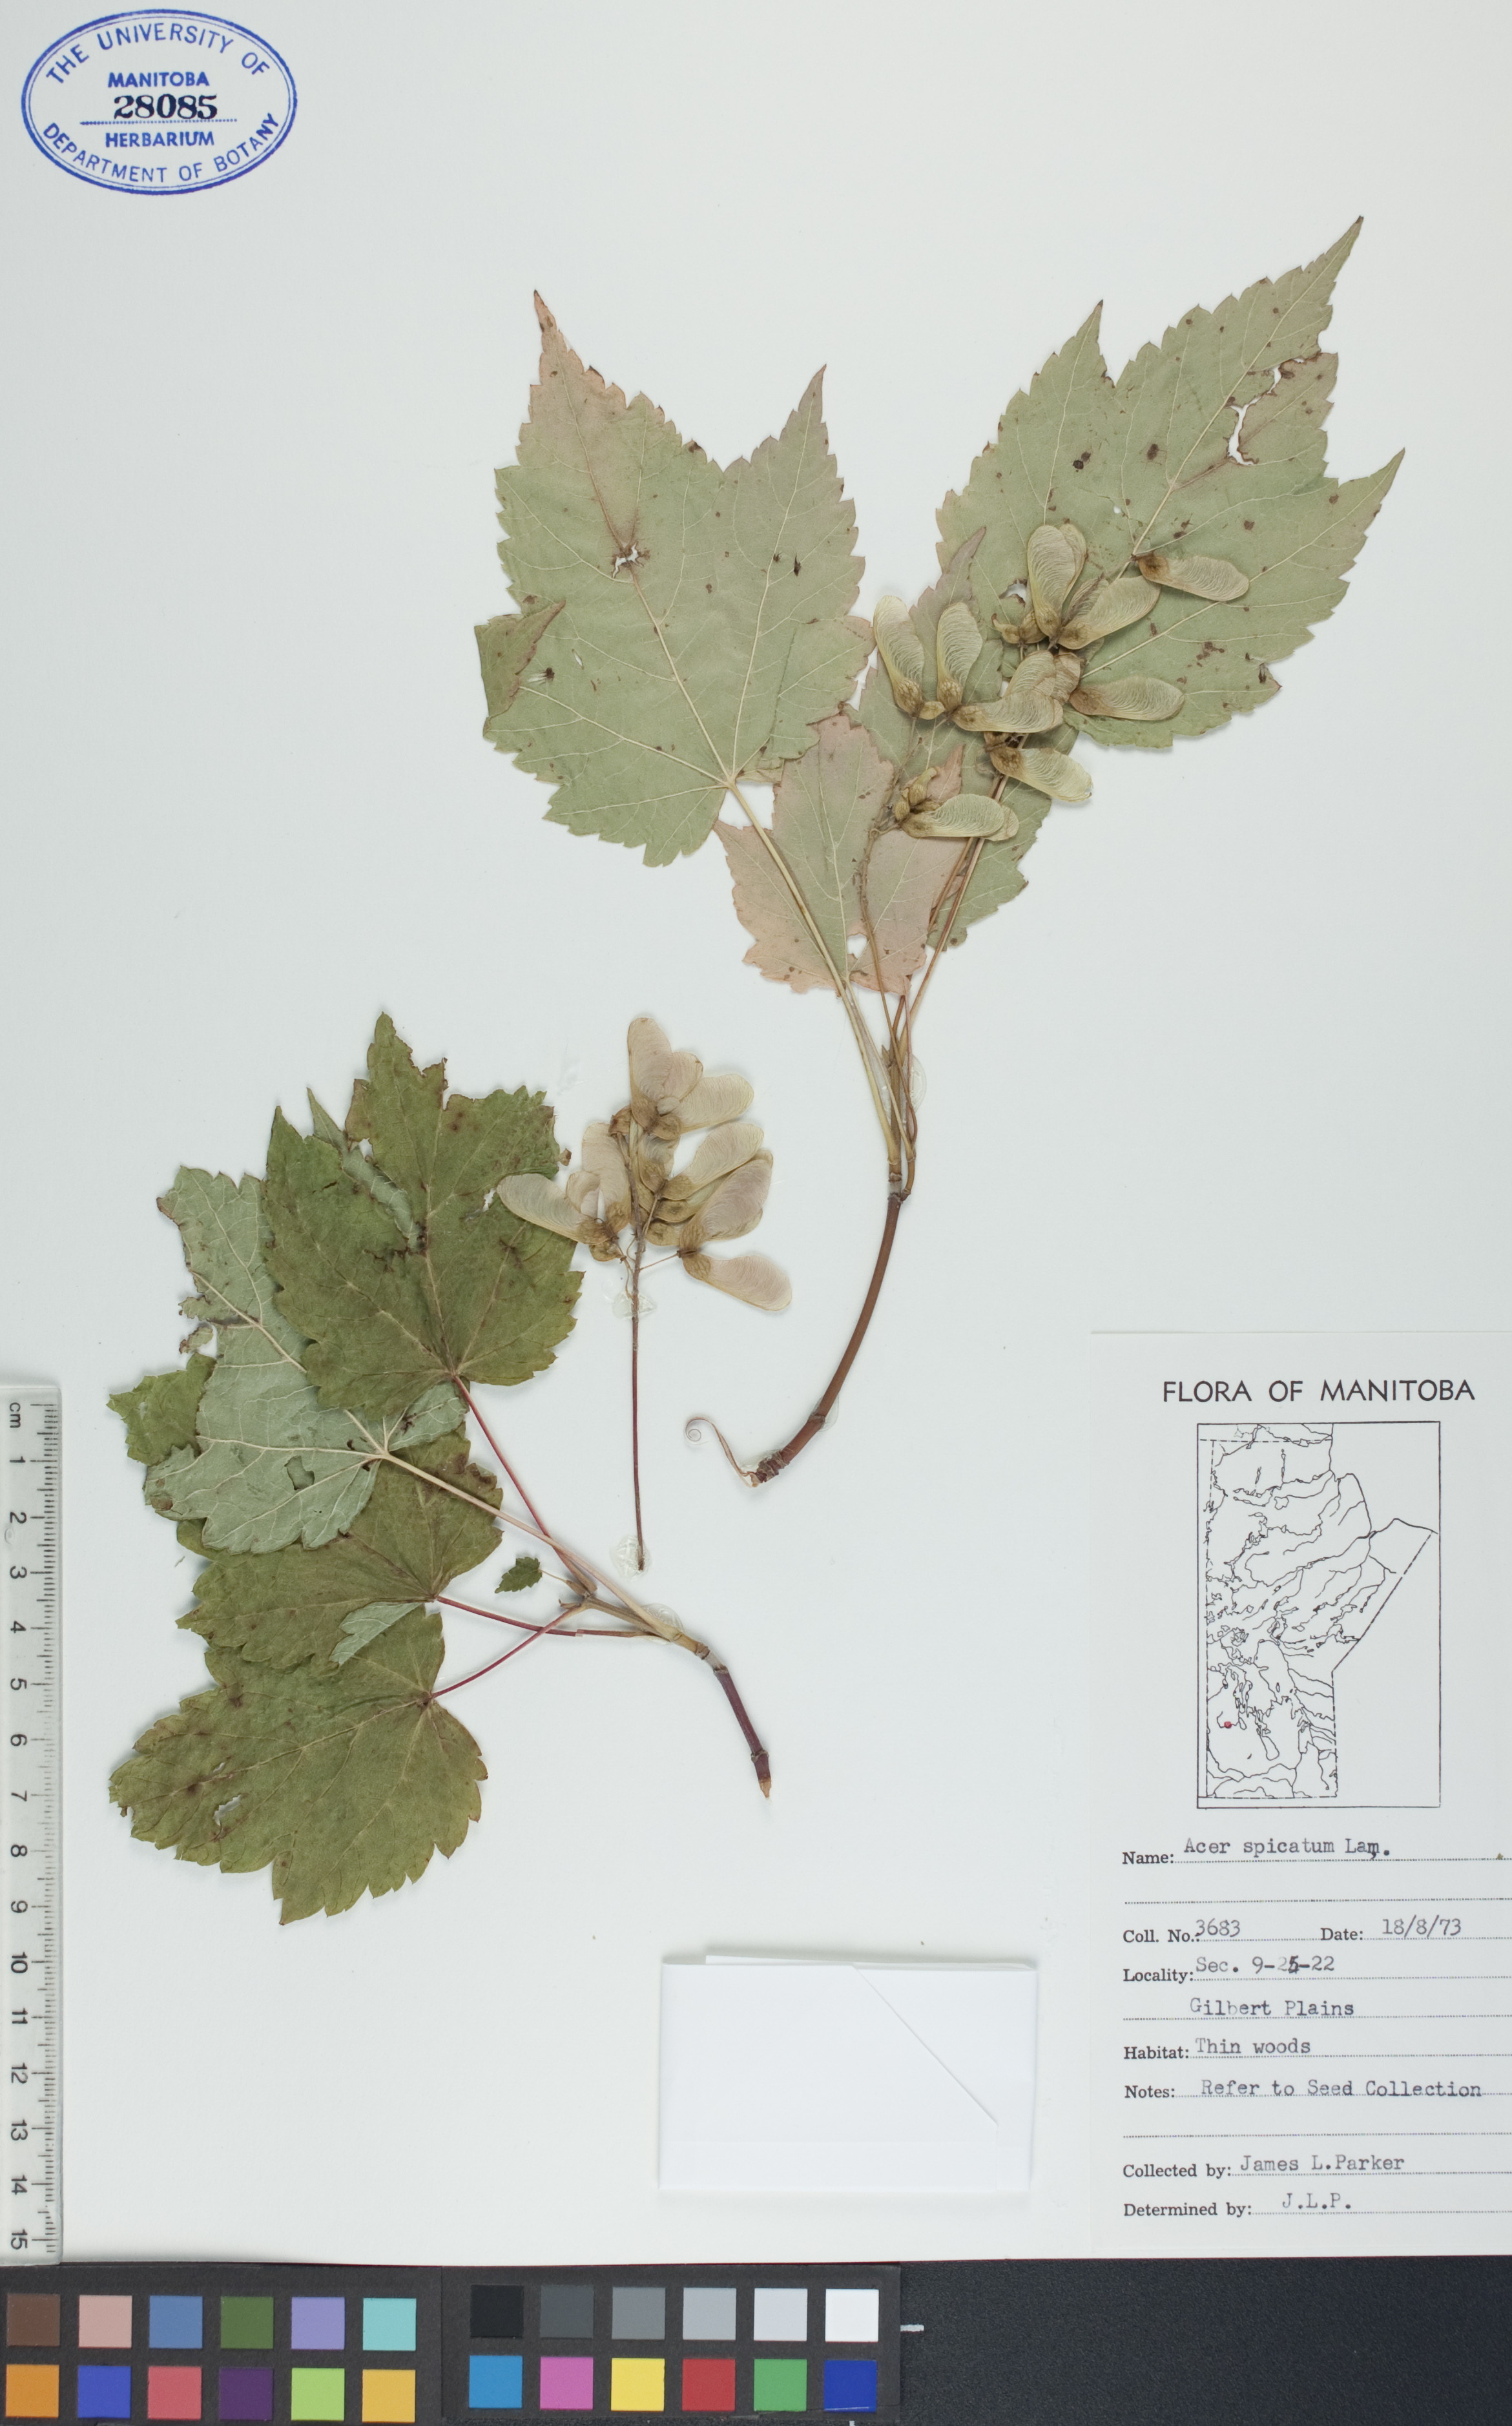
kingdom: Plantae
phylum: Tracheophyta
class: Magnoliopsida
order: Sapindales
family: Sapindaceae
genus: Acer
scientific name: Acer spicatum
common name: Mountain maple
